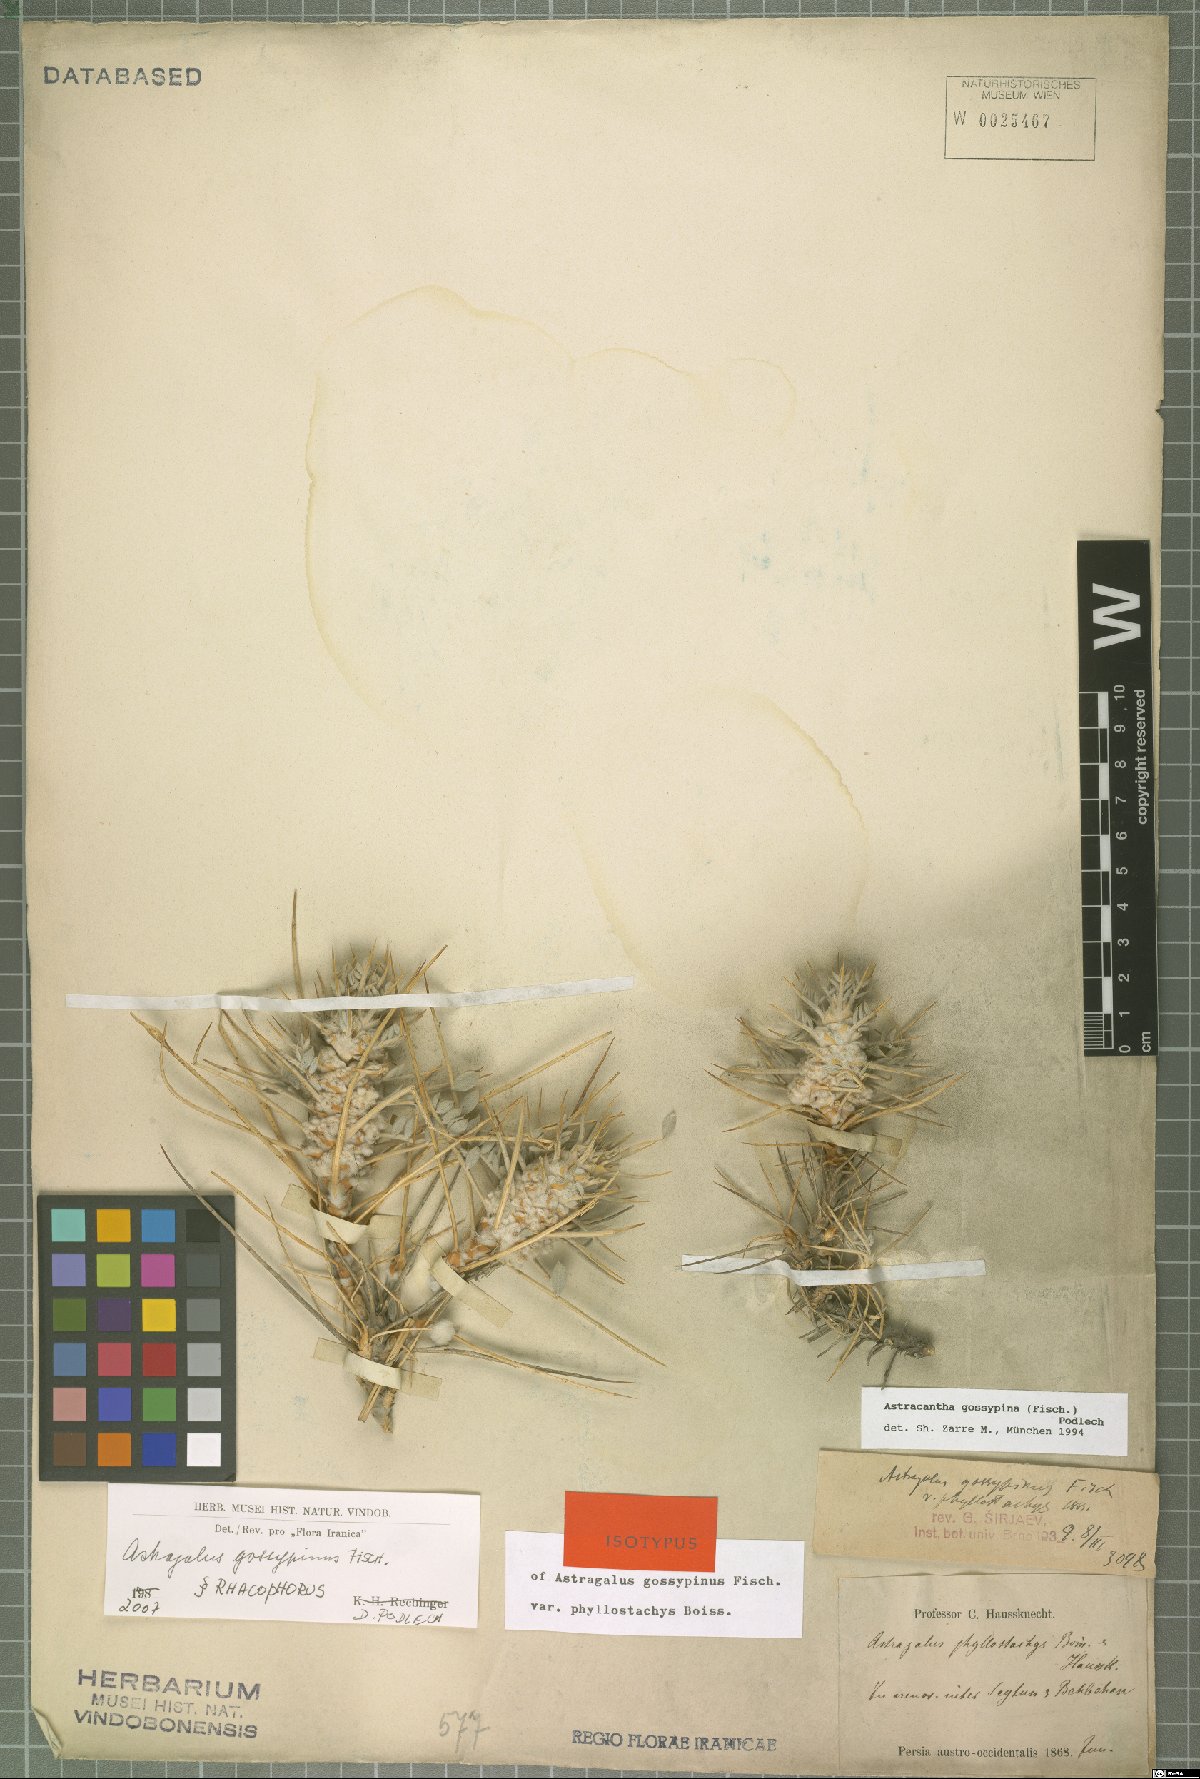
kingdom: Plantae
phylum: Tracheophyta
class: Magnoliopsida
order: Fabales
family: Fabaceae
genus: Astragalus
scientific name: Astragalus gossypinus
